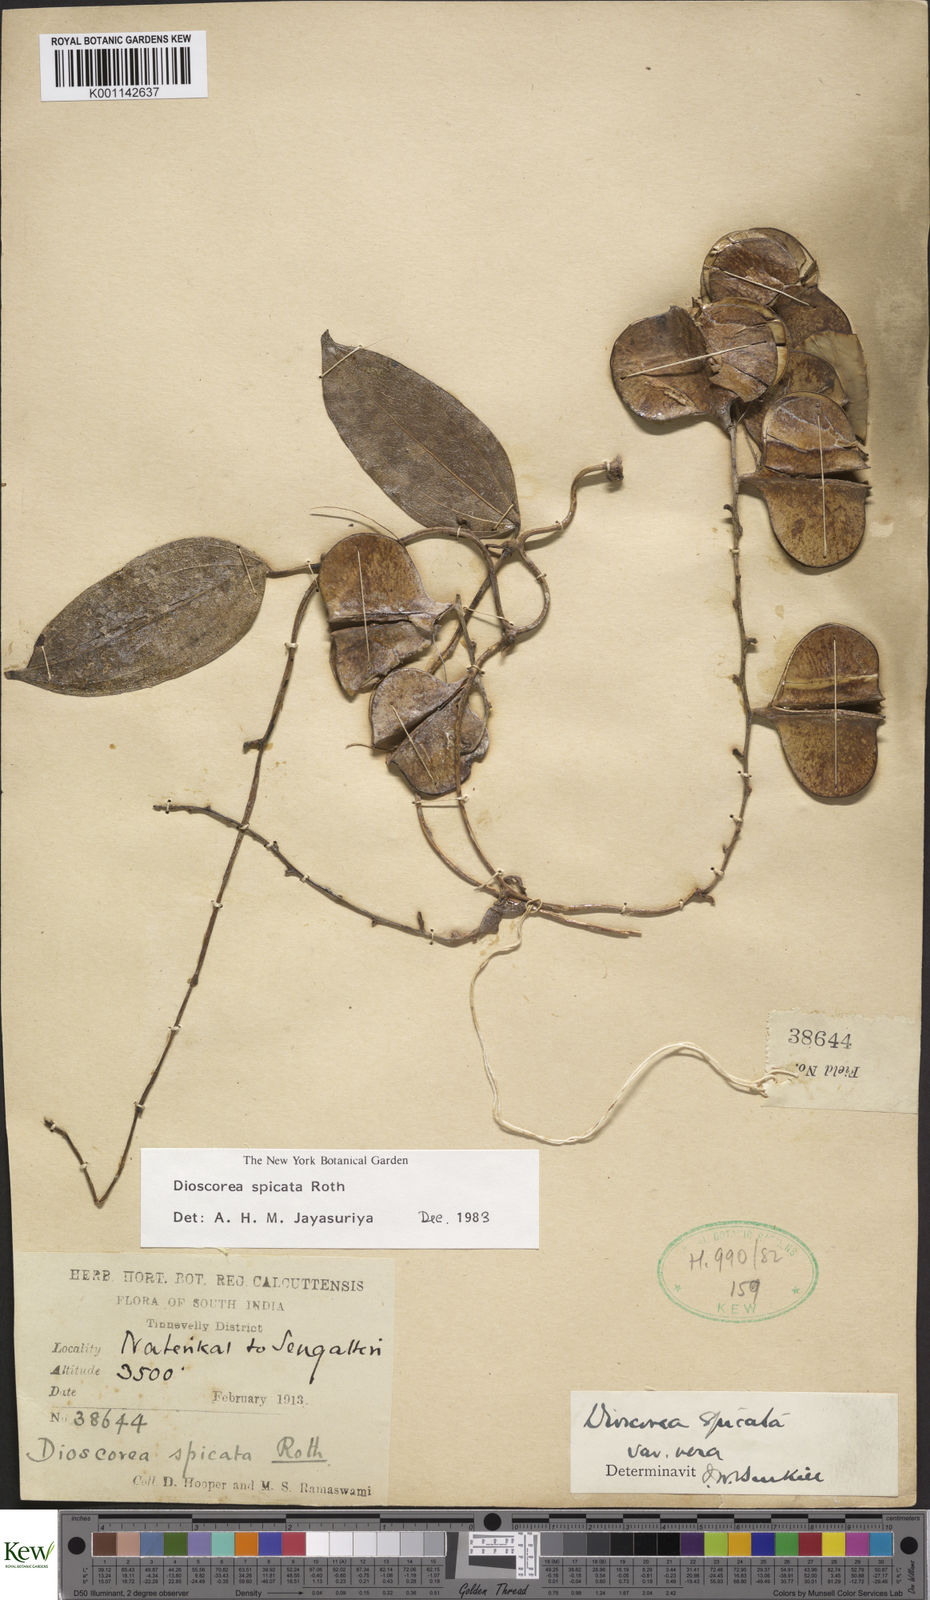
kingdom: Plantae
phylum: Tracheophyta
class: Liliopsida
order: Dioscoreales
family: Dioscoreaceae
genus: Dioscorea
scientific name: Dioscorea spicata
